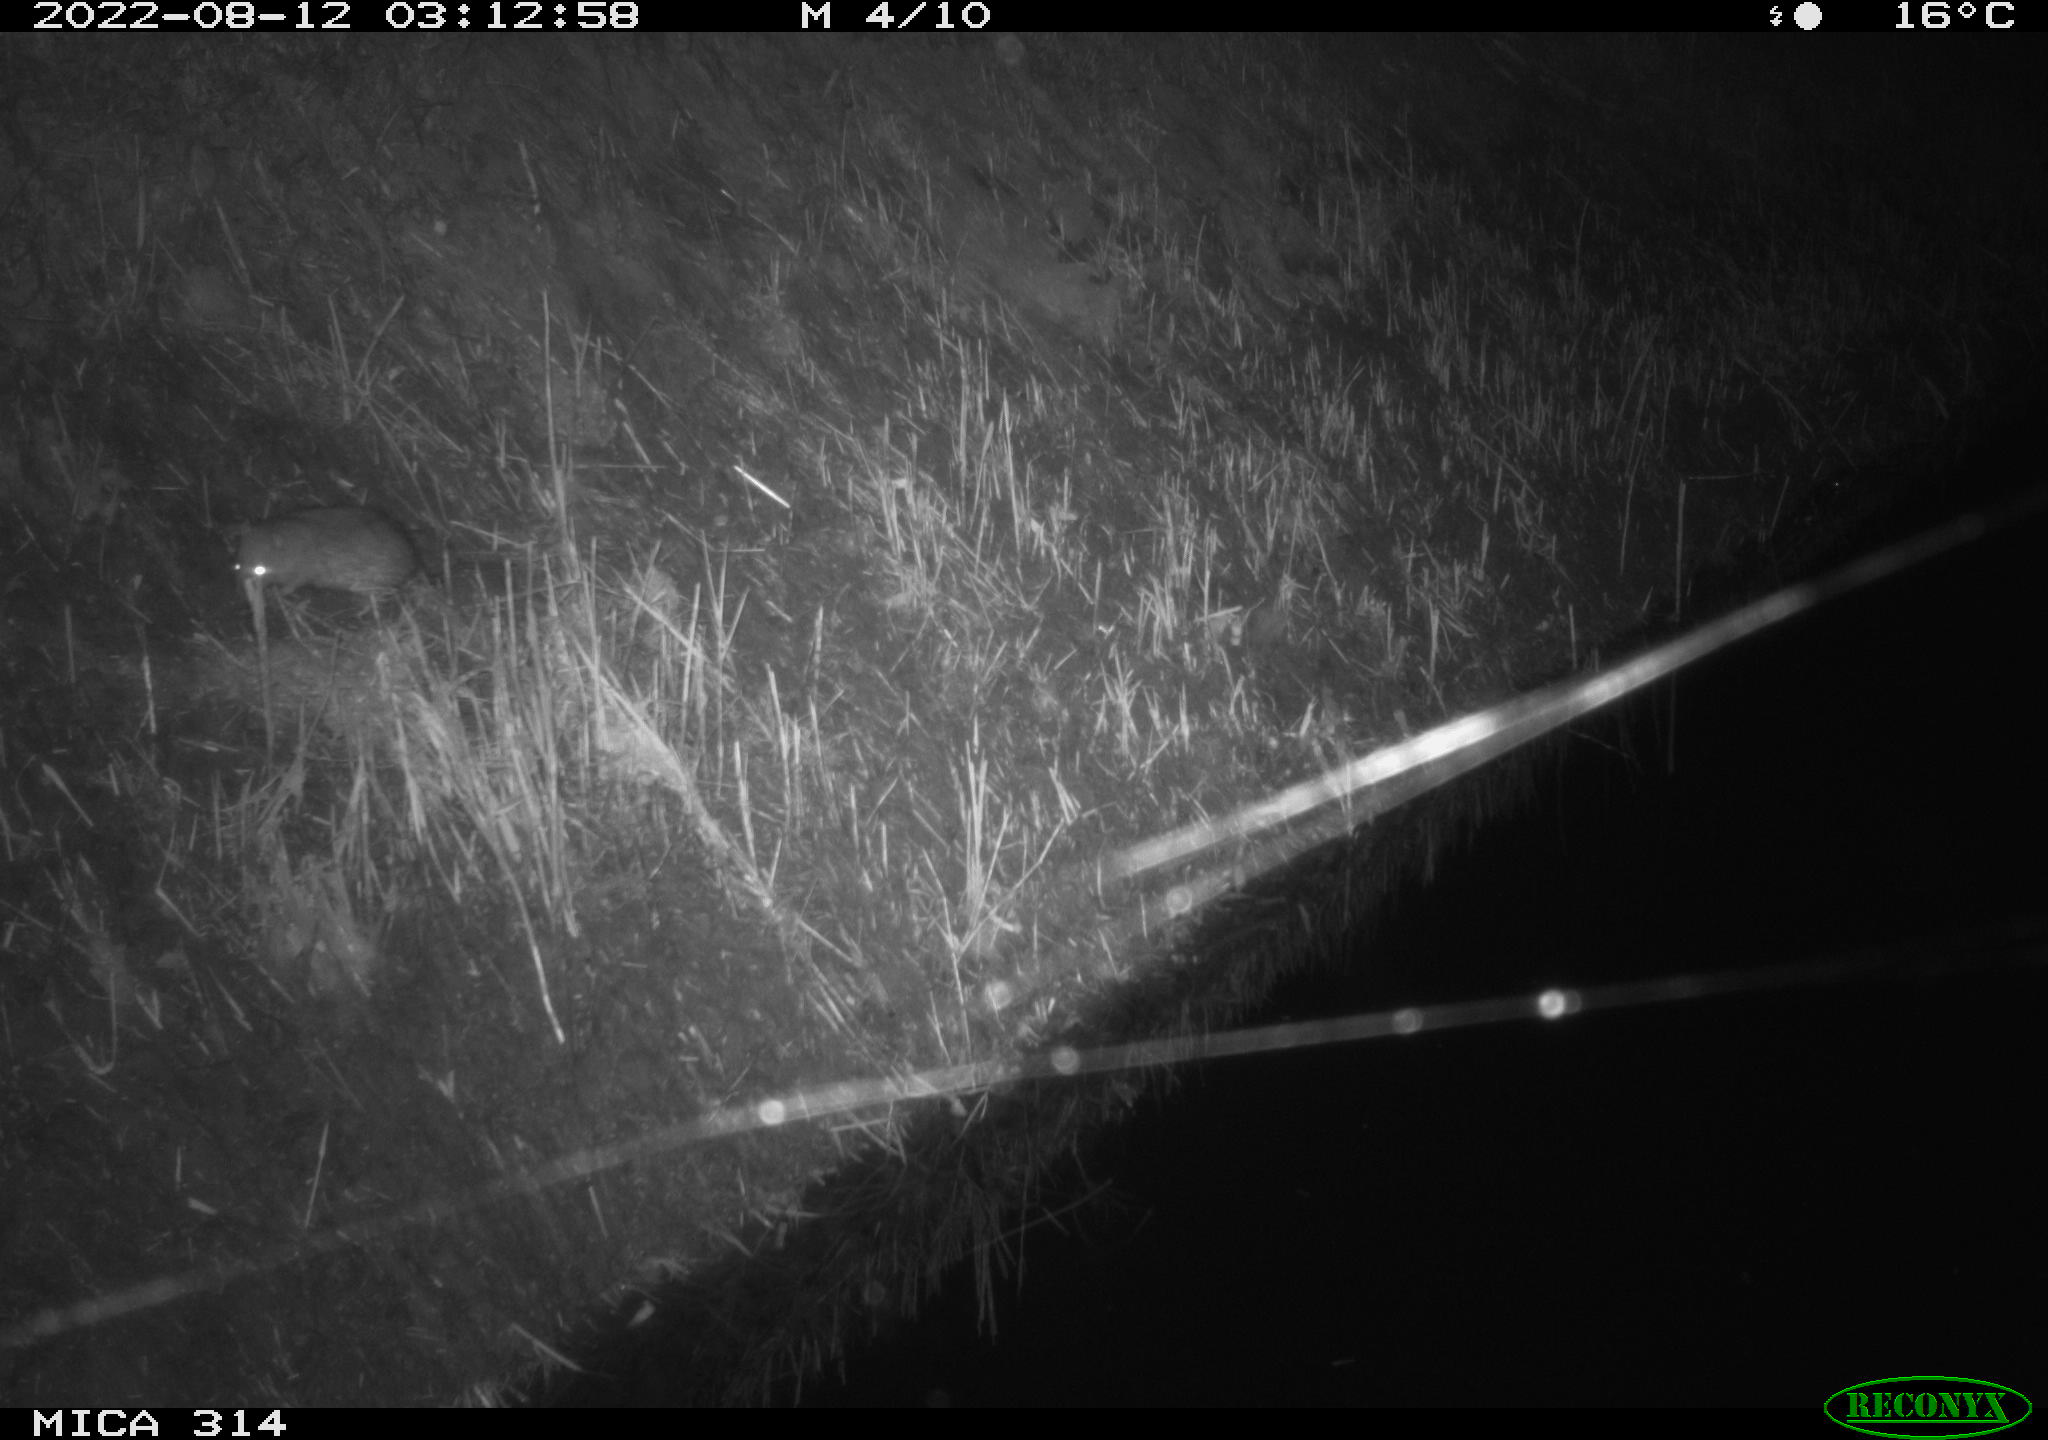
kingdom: Animalia
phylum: Chordata
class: Mammalia
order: Rodentia
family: Muridae
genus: Rattus
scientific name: Rattus norvegicus
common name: Brown rat
